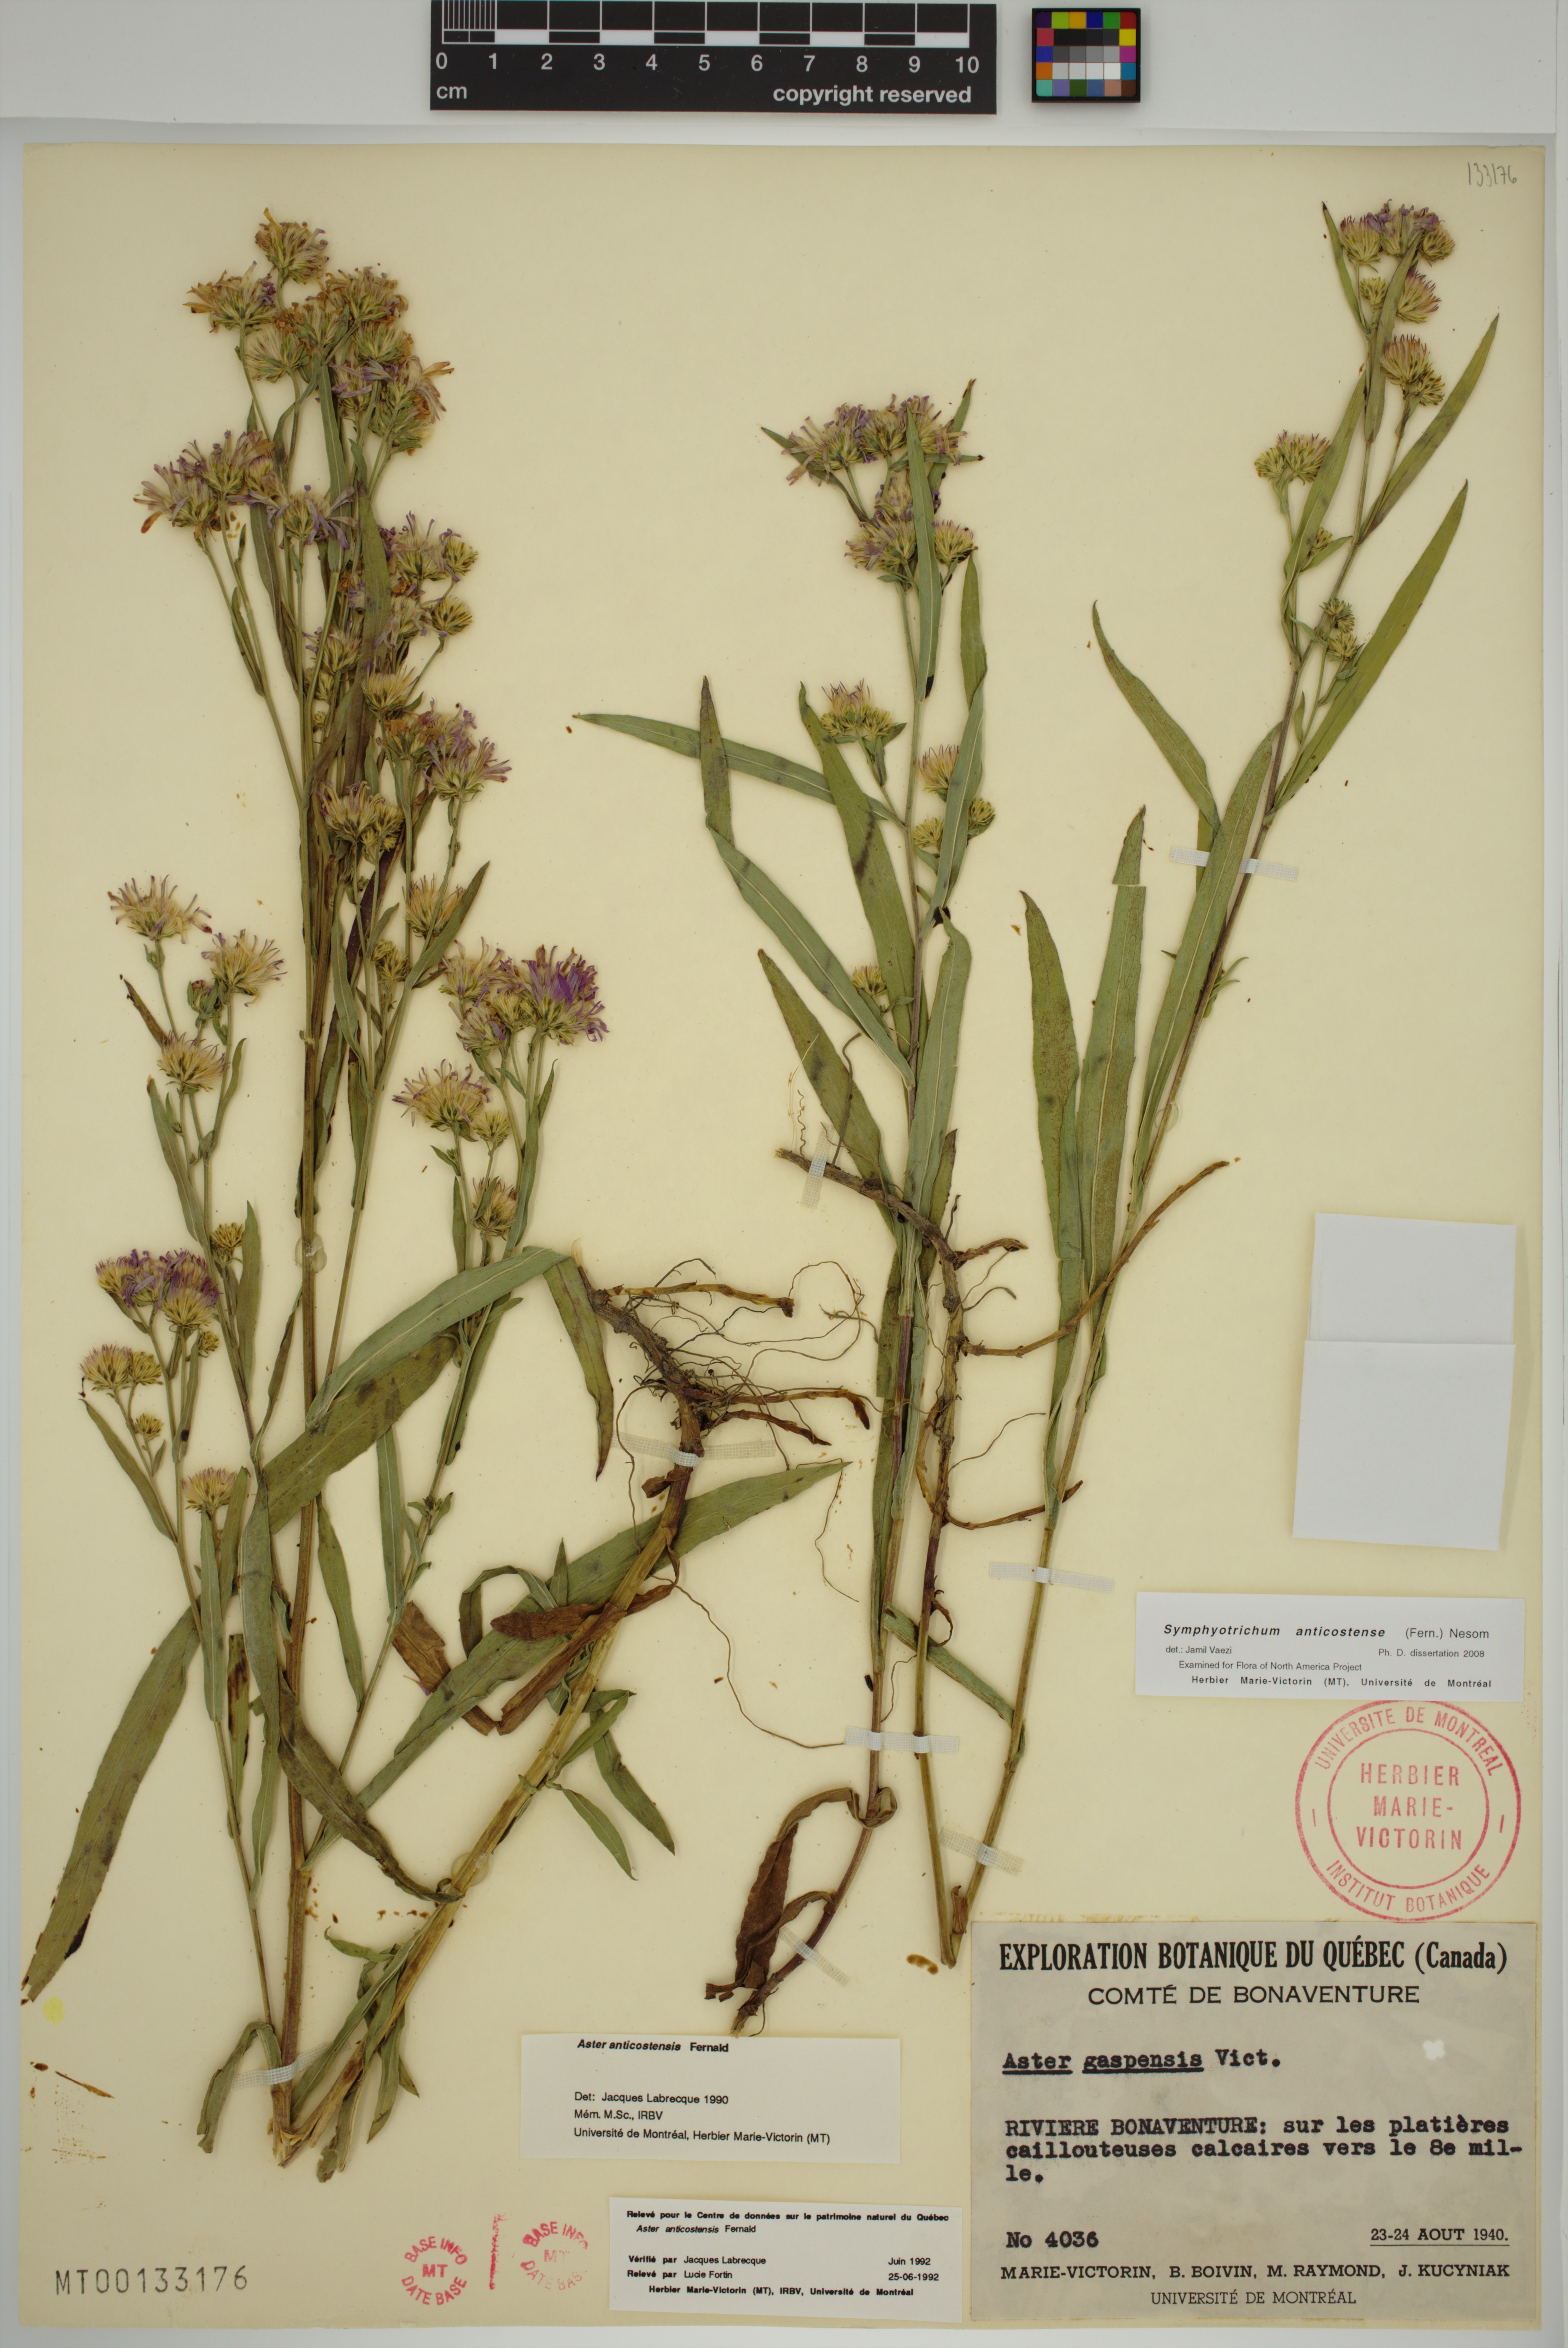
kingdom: Plantae
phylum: Tracheophyta
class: Magnoliopsida
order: Asterales
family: Asteraceae
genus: Symphyotrichum
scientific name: Symphyotrichum anticostense
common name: Anticosti island aster
